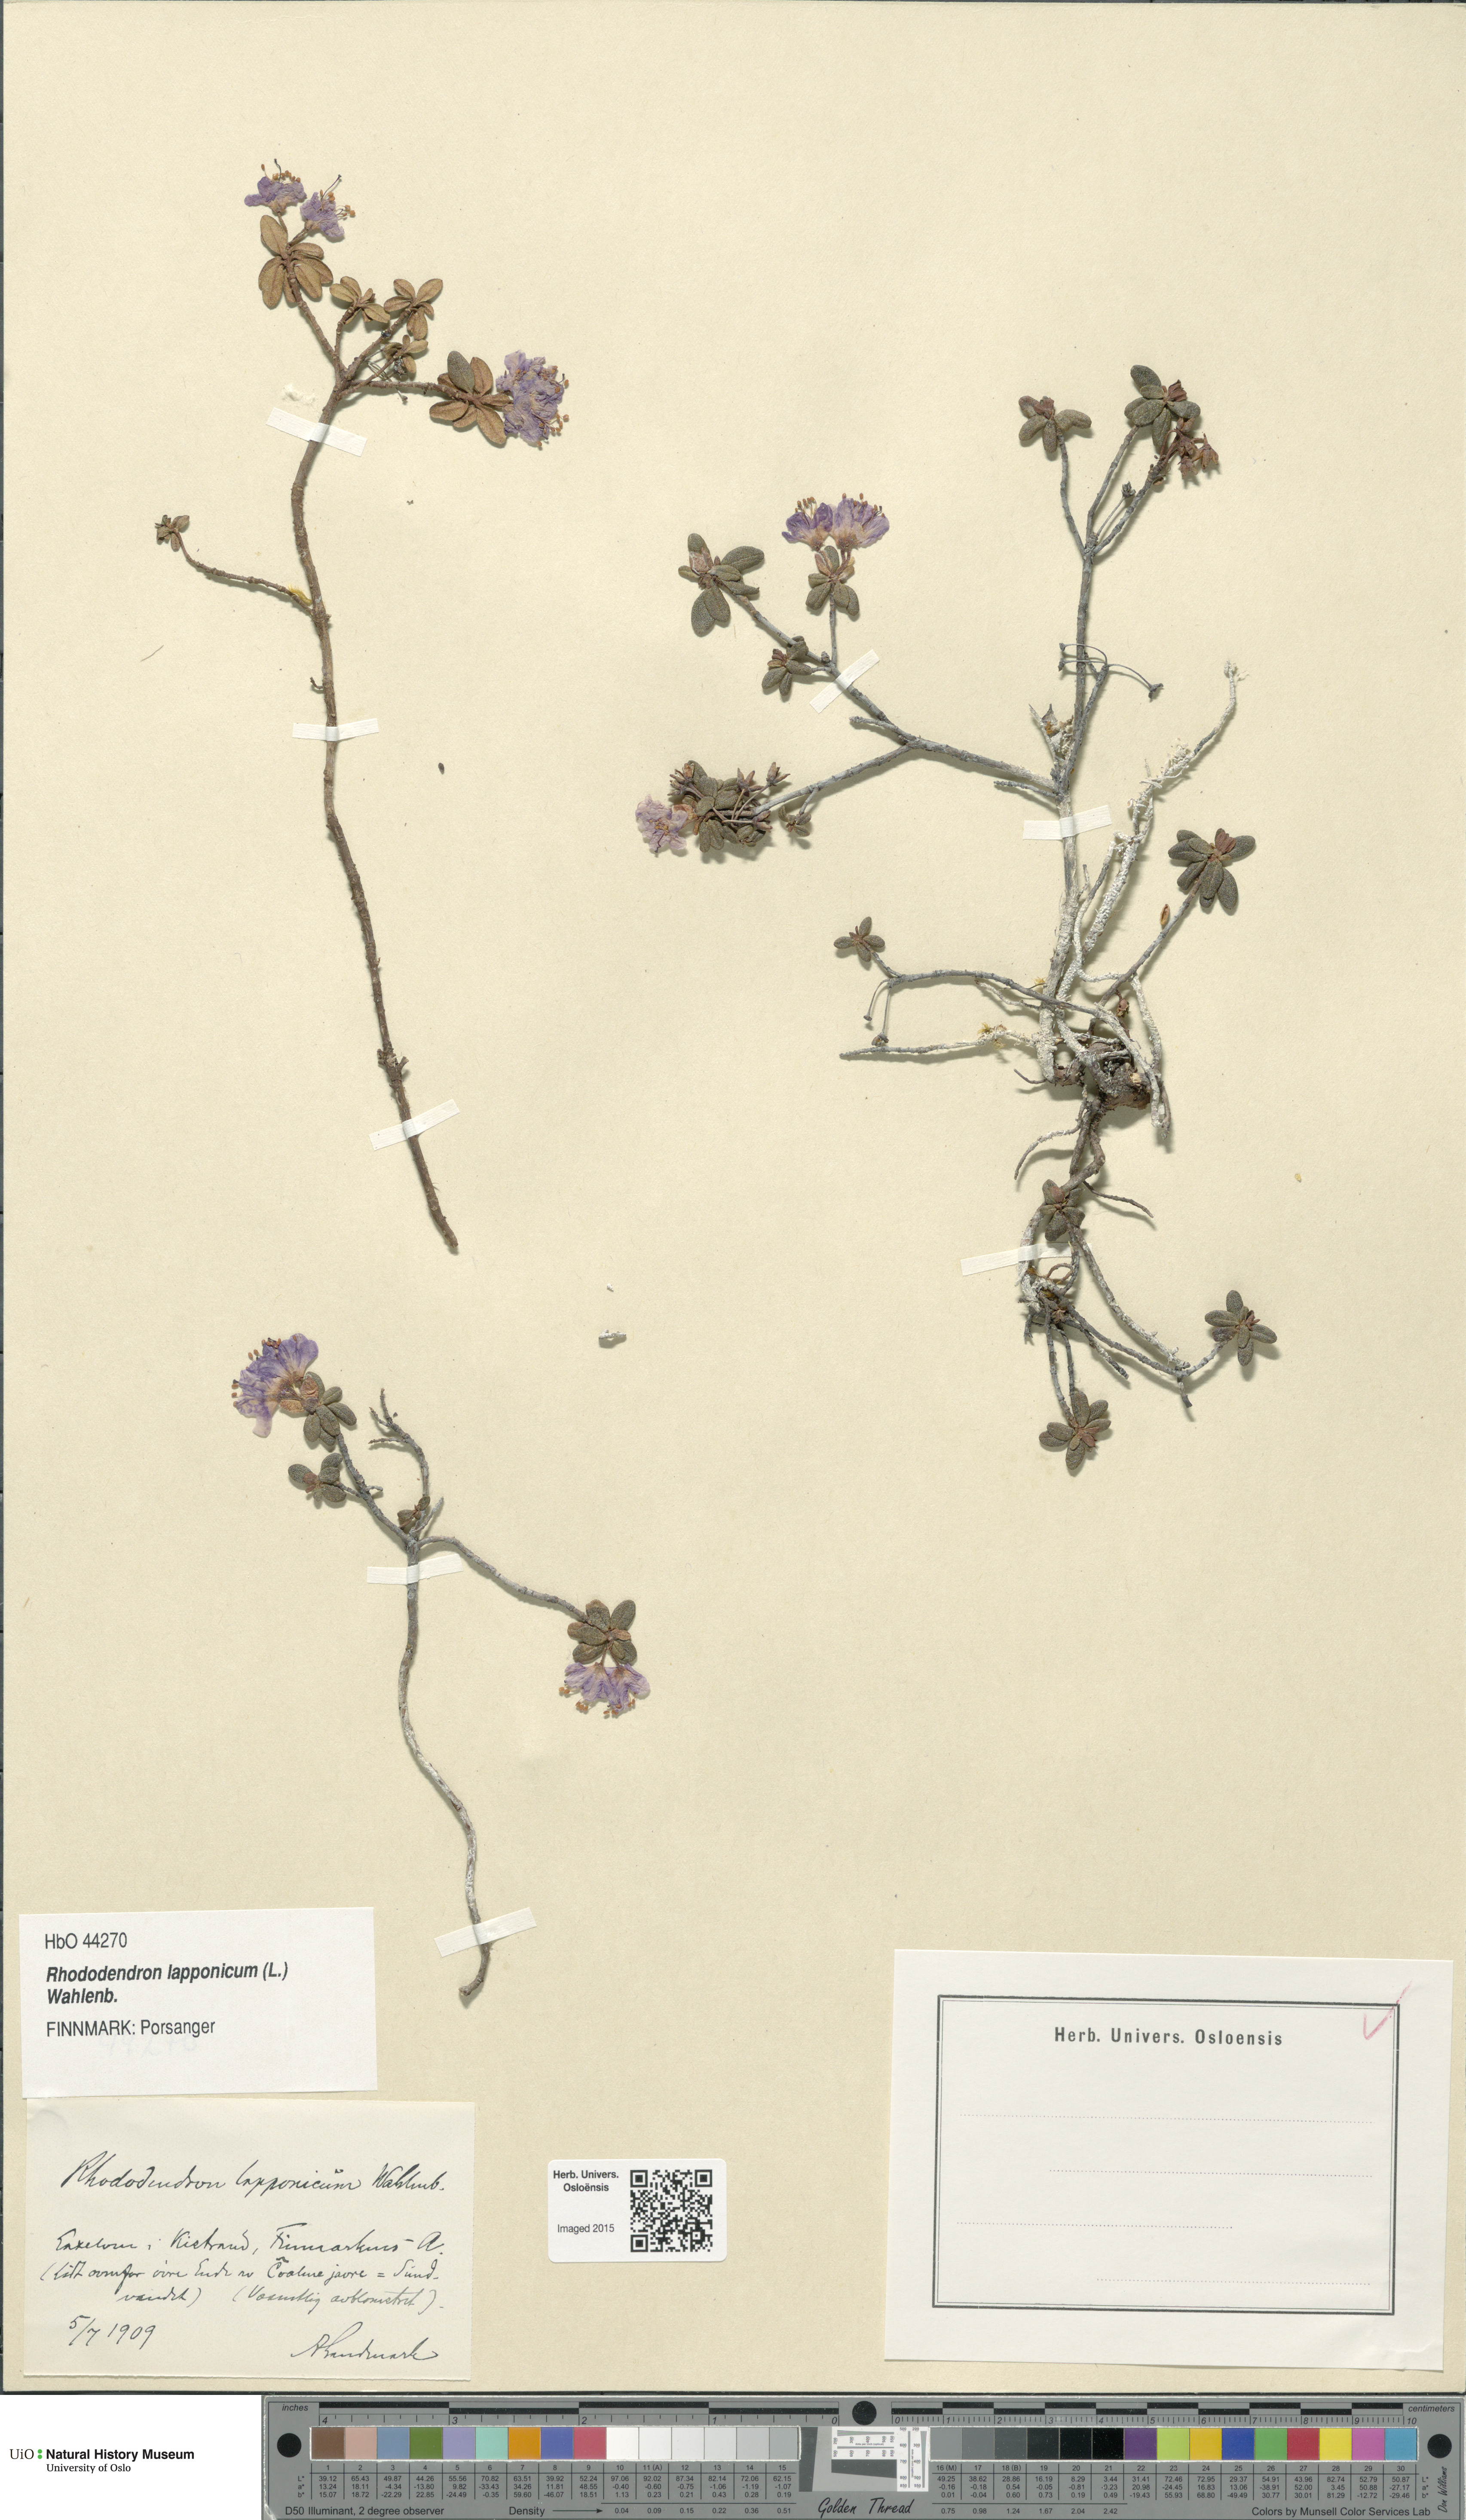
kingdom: Plantae
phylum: Tracheophyta
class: Magnoliopsida
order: Ericales
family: Ericaceae
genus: Rhododendron
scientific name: Rhododendron lapponicum
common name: Lapland rhododendron
